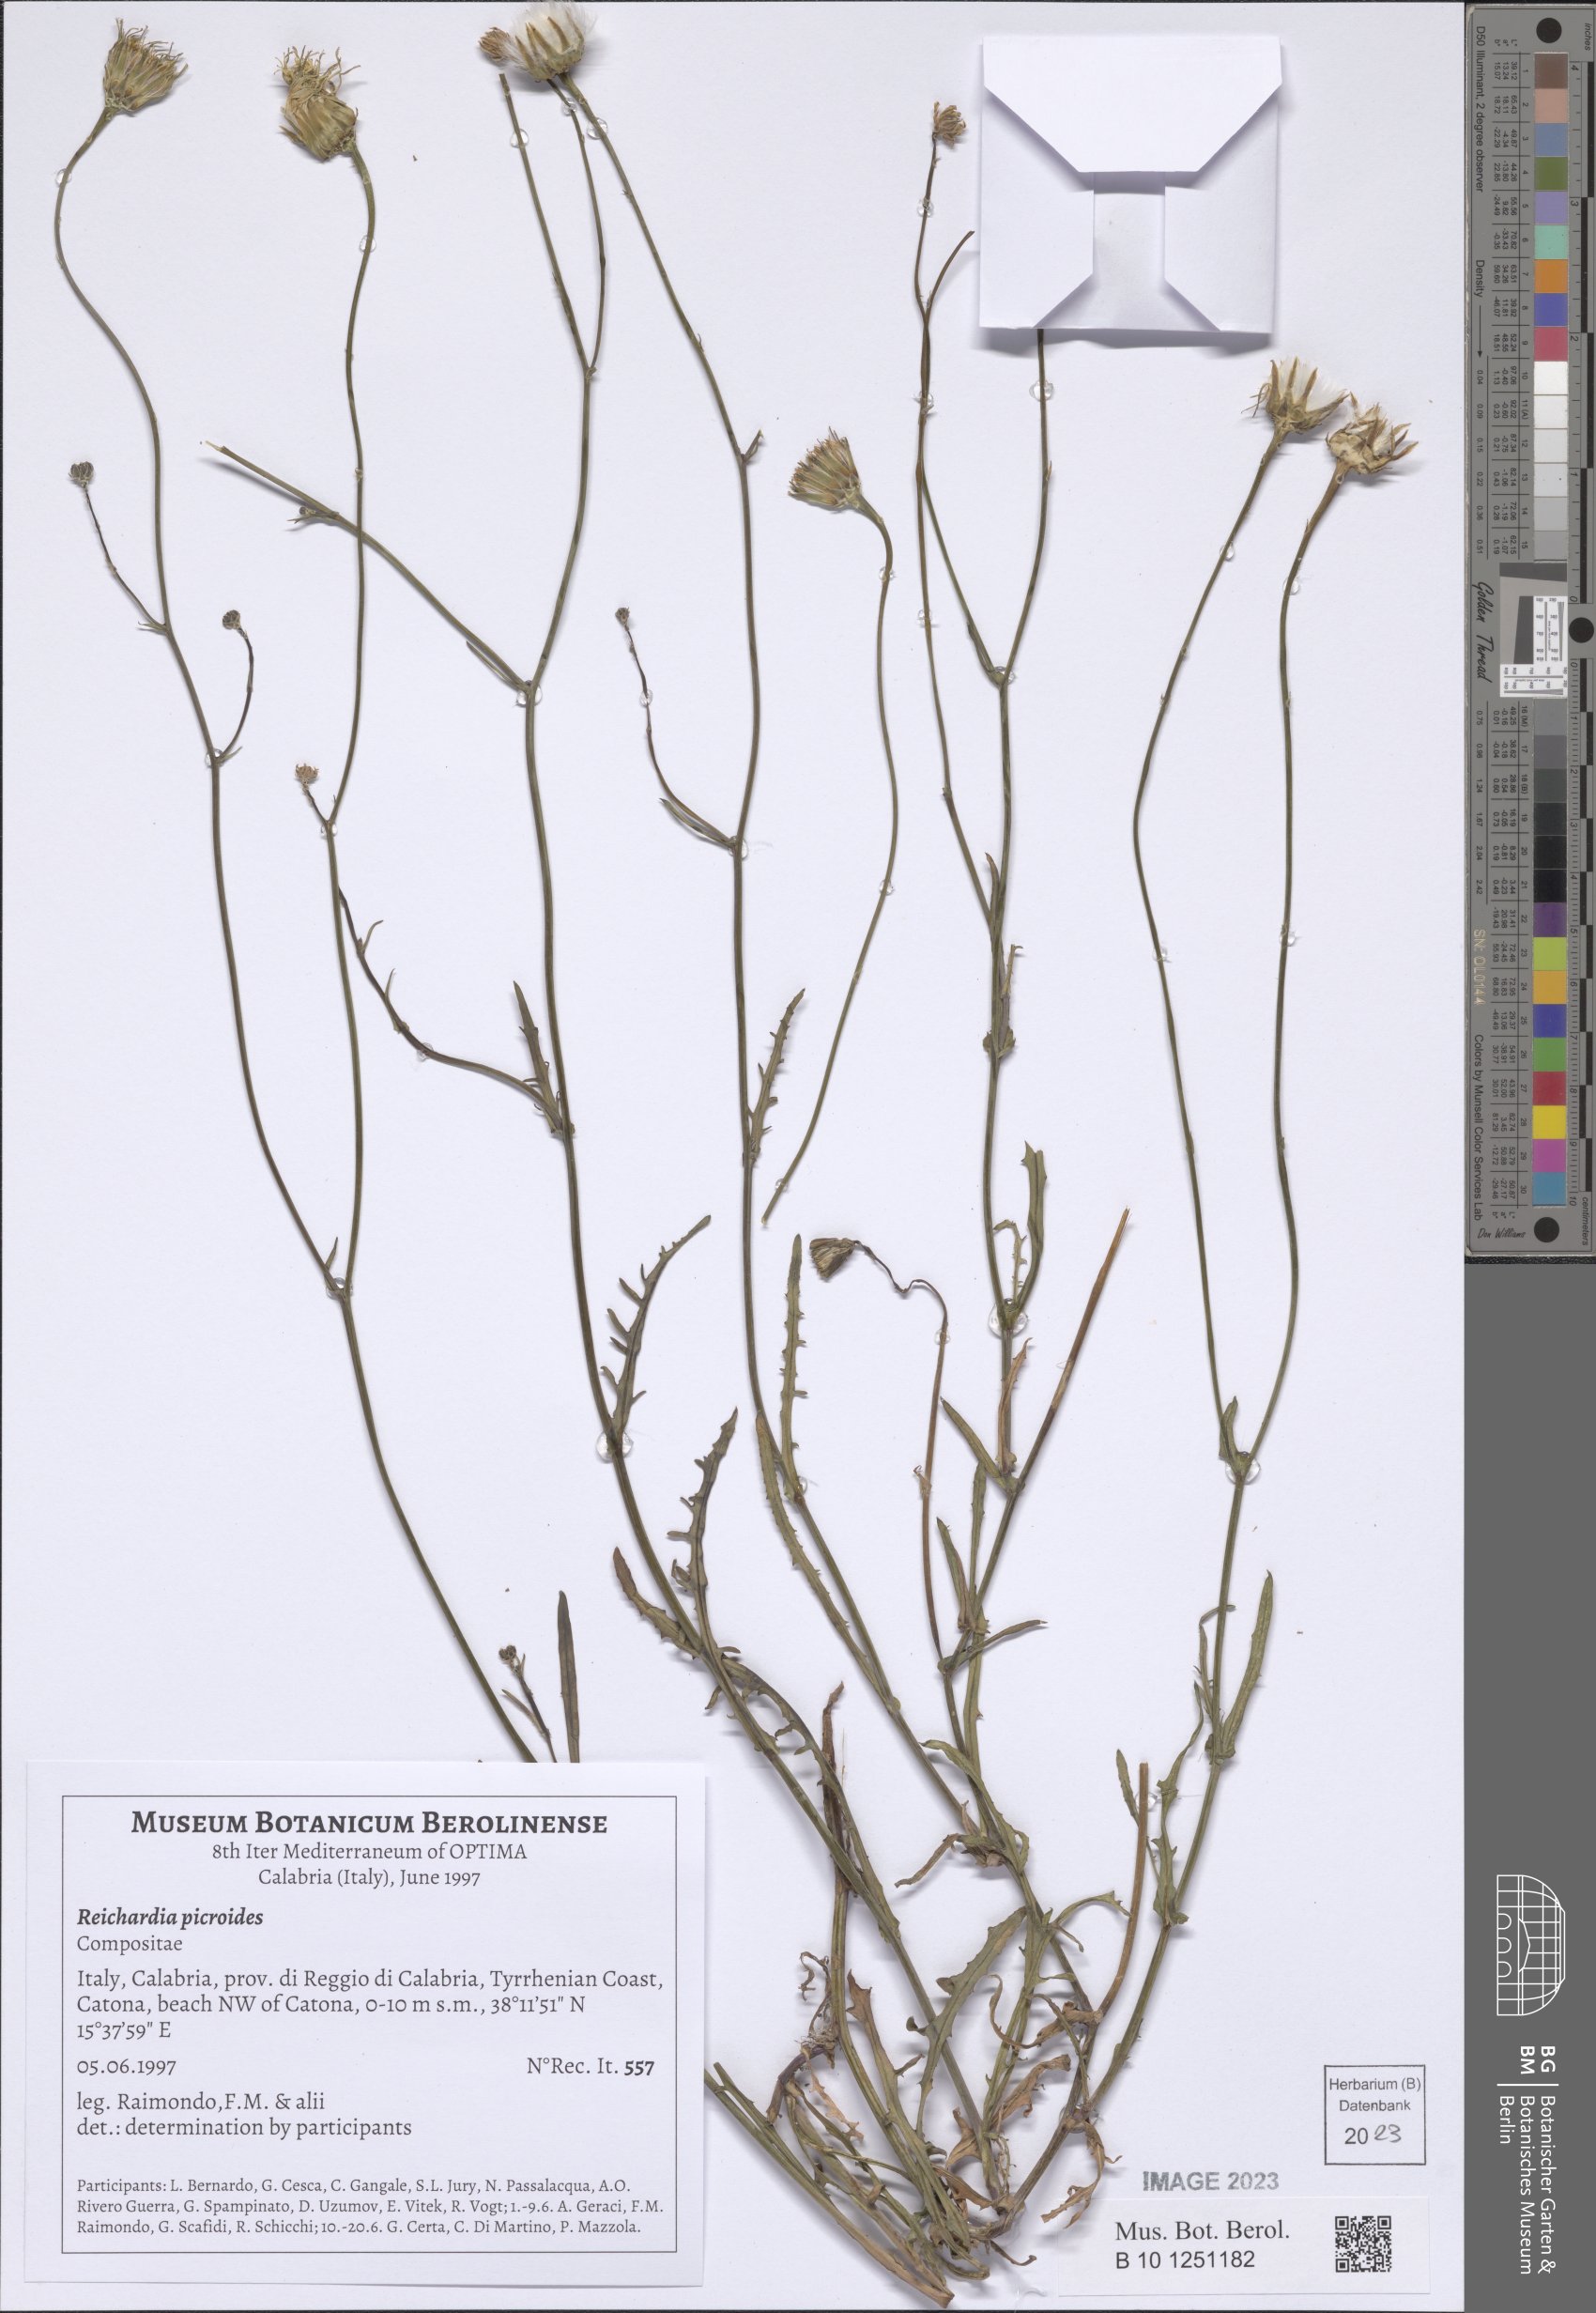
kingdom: Plantae
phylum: Tracheophyta
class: Magnoliopsida
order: Asterales
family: Asteraceae
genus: Reichardia
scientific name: Reichardia picroides
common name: Common brighteyes
